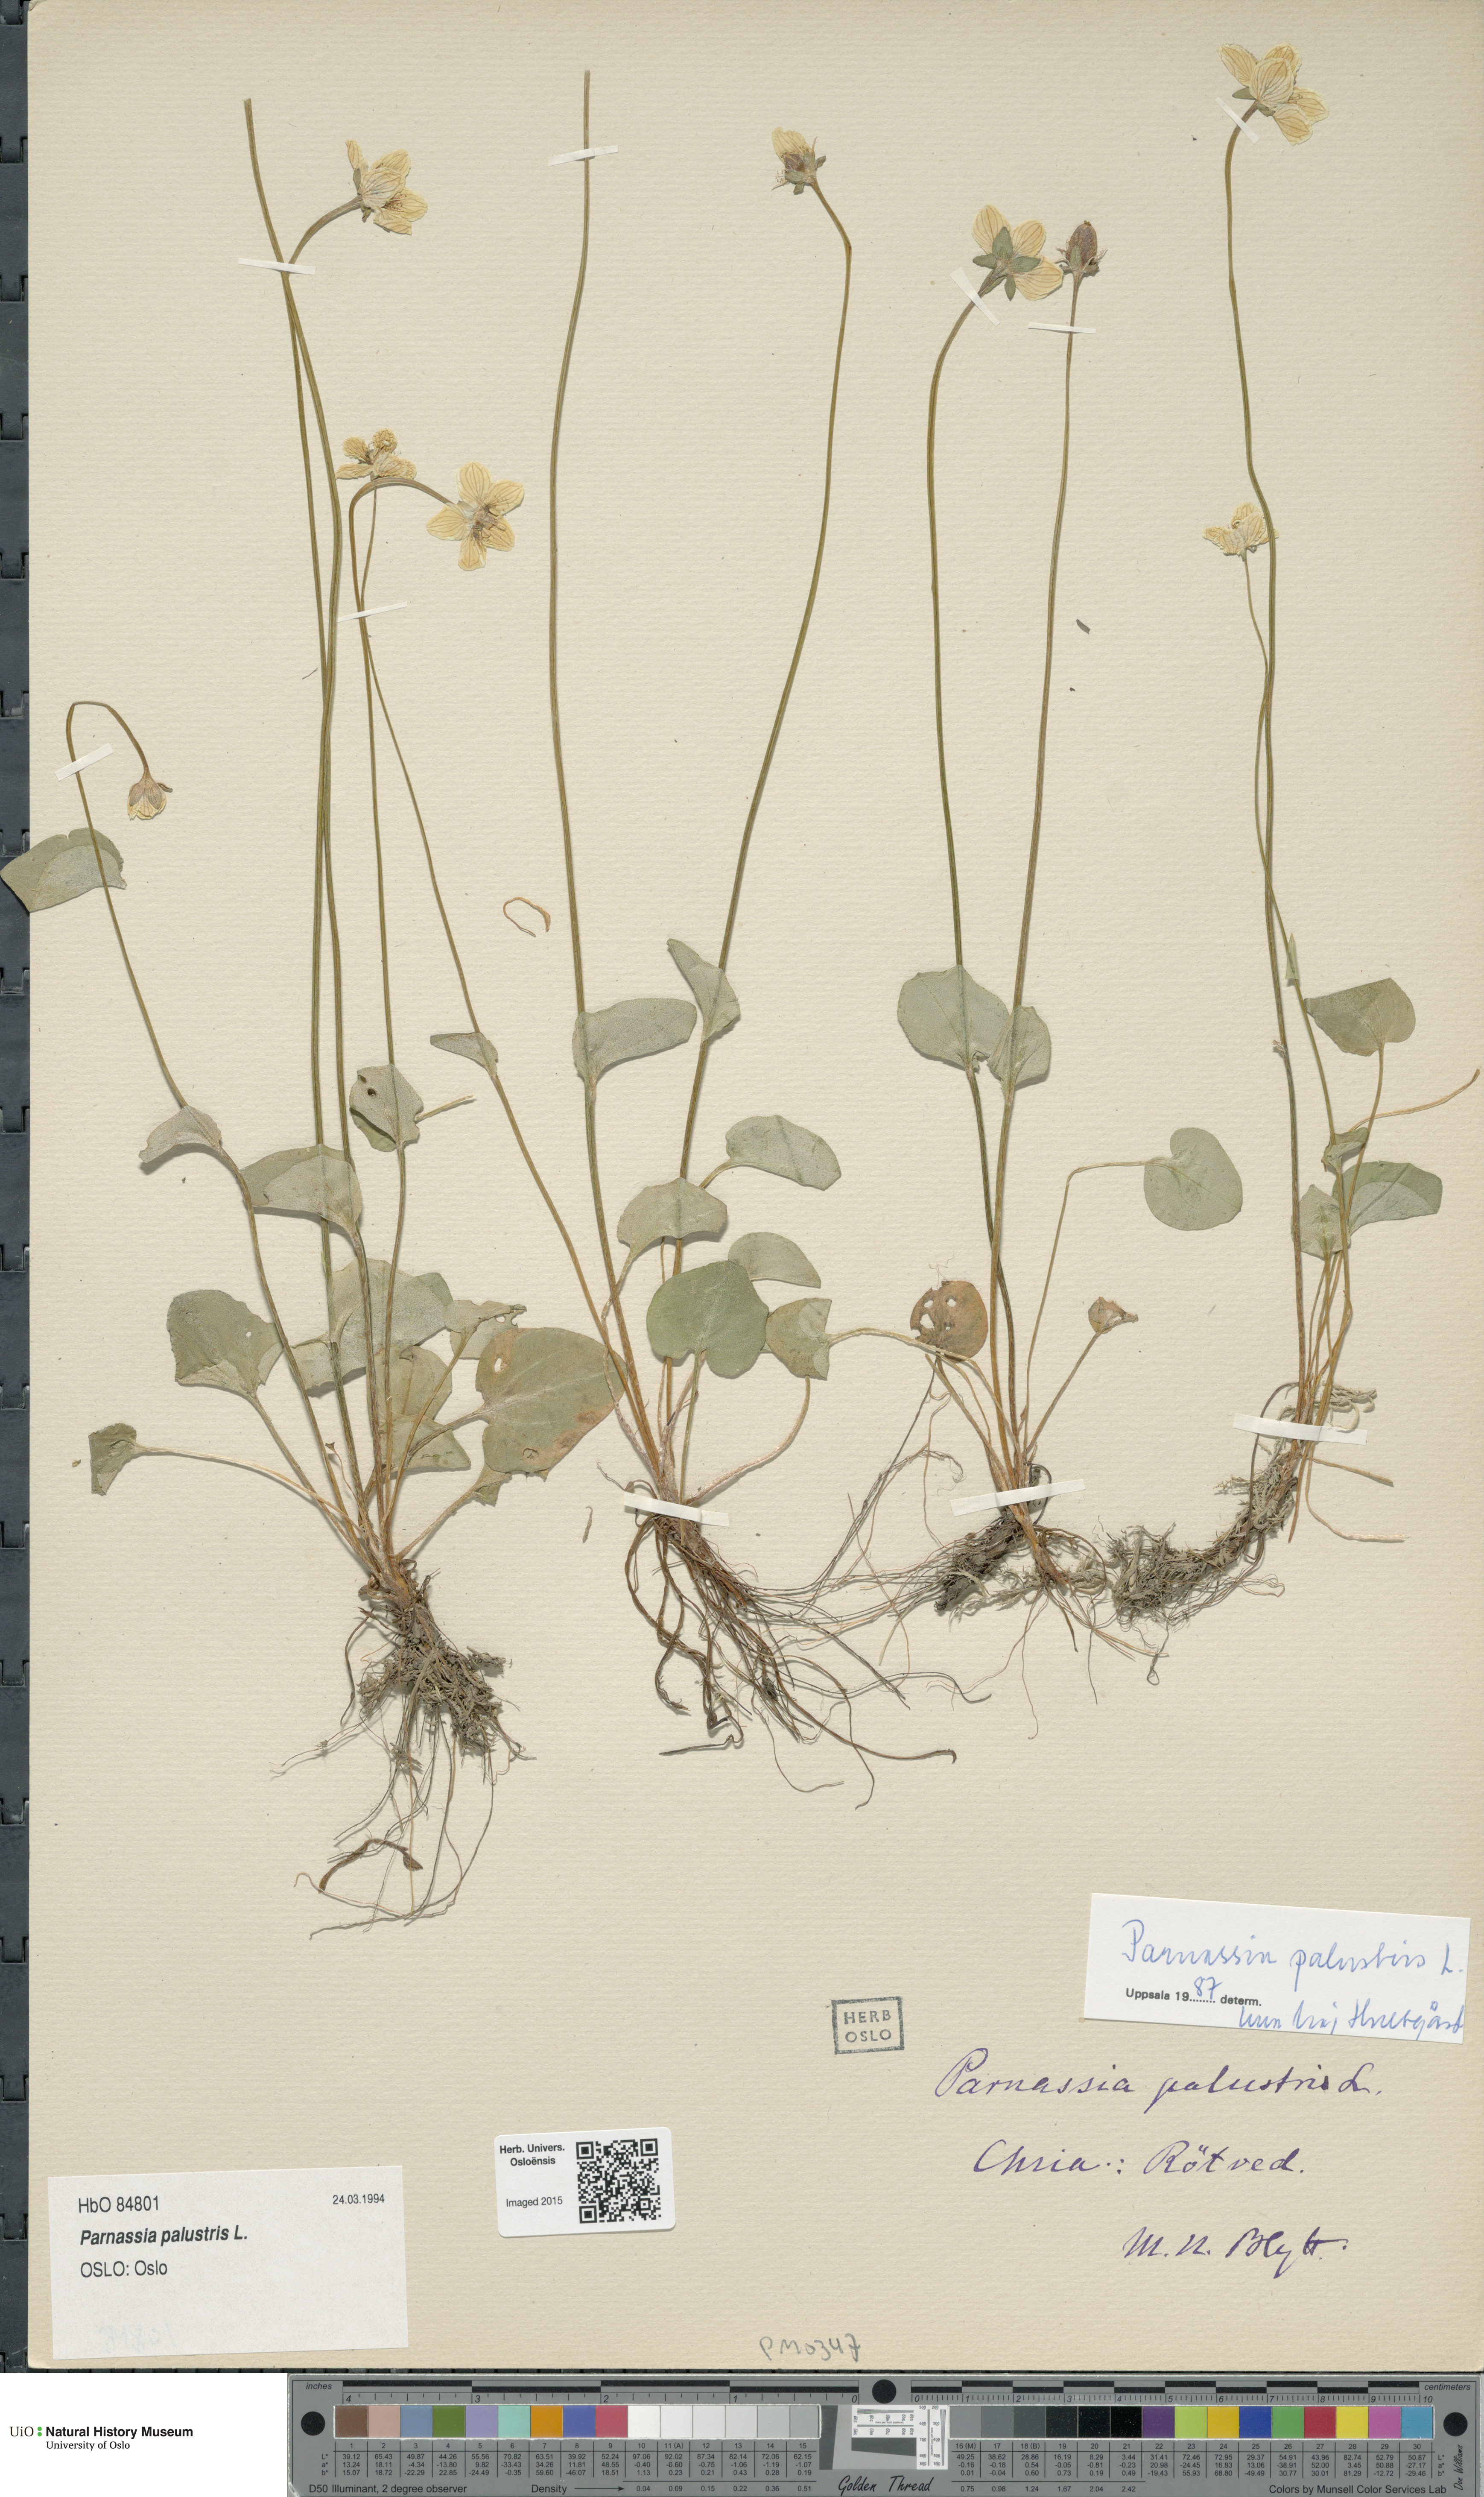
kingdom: Plantae
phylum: Tracheophyta
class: Magnoliopsida
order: Celastrales
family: Parnassiaceae
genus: Parnassia
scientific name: Parnassia palustris
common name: Grass-of-parnassus
